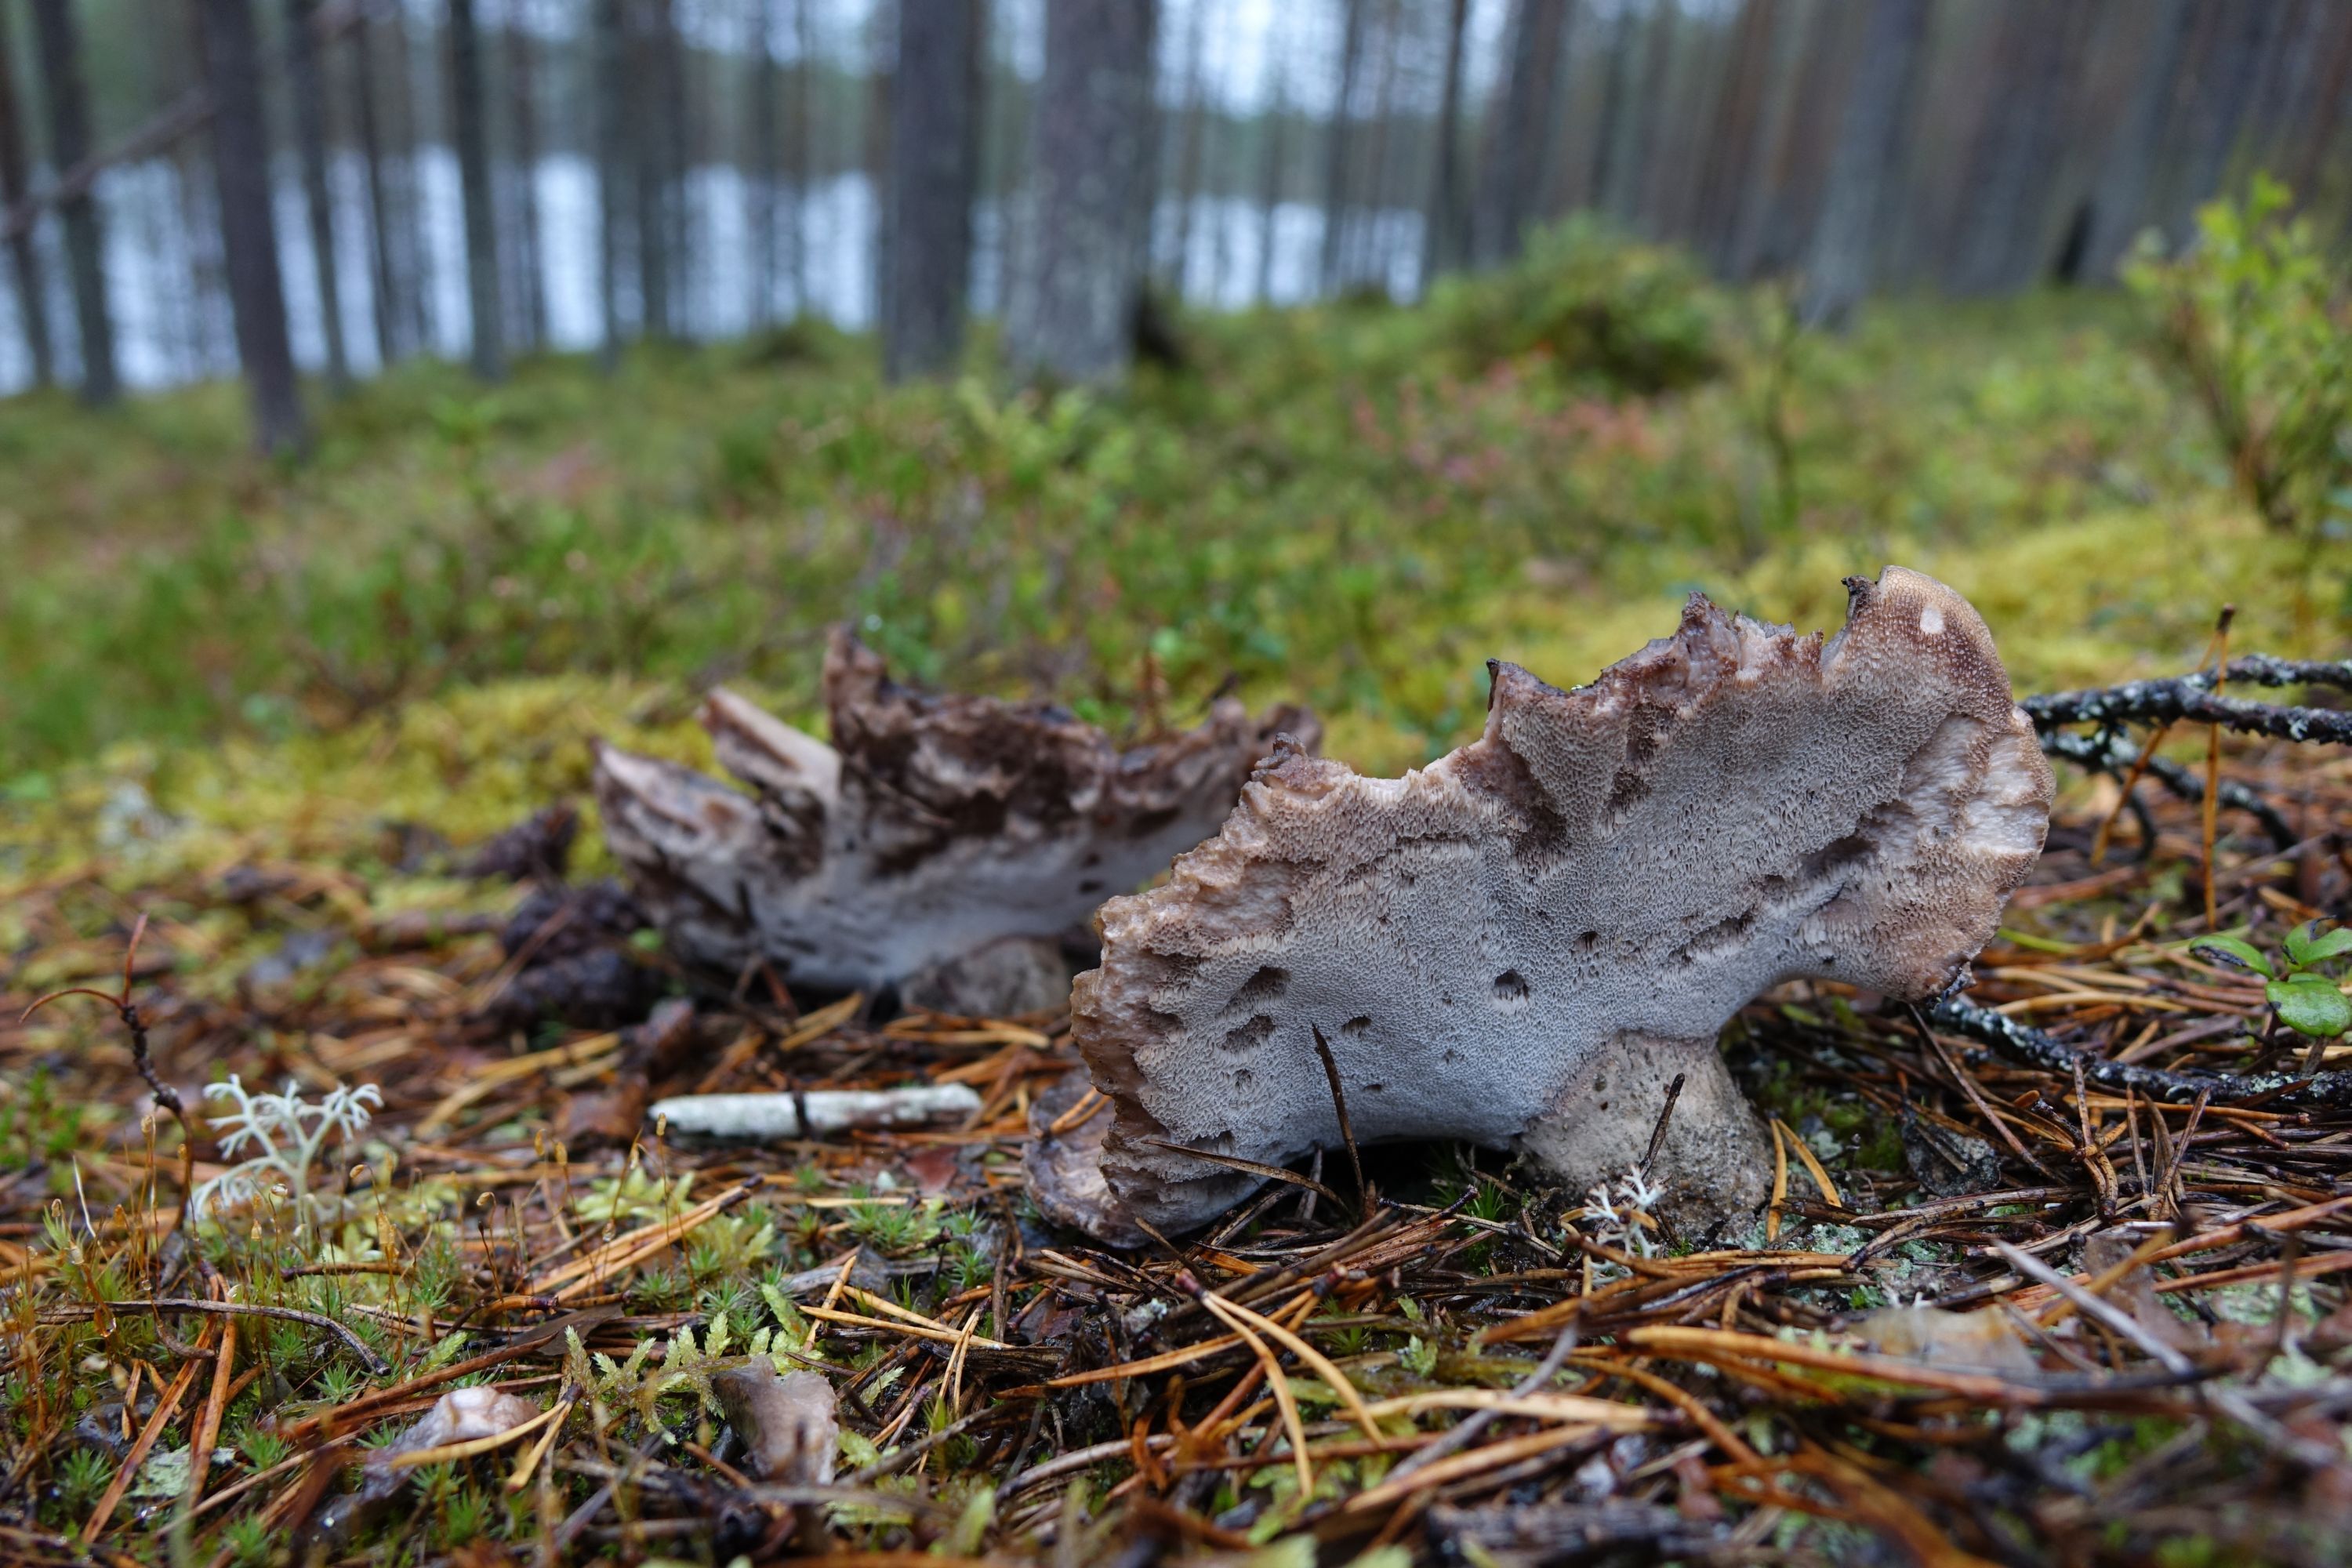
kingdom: Fungi
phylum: Basidiomycota
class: Agaricomycetes
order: Thelephorales
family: Bankeraceae
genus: Boletopsis
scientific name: Boletopsis grisea
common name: Grey falsebolete
